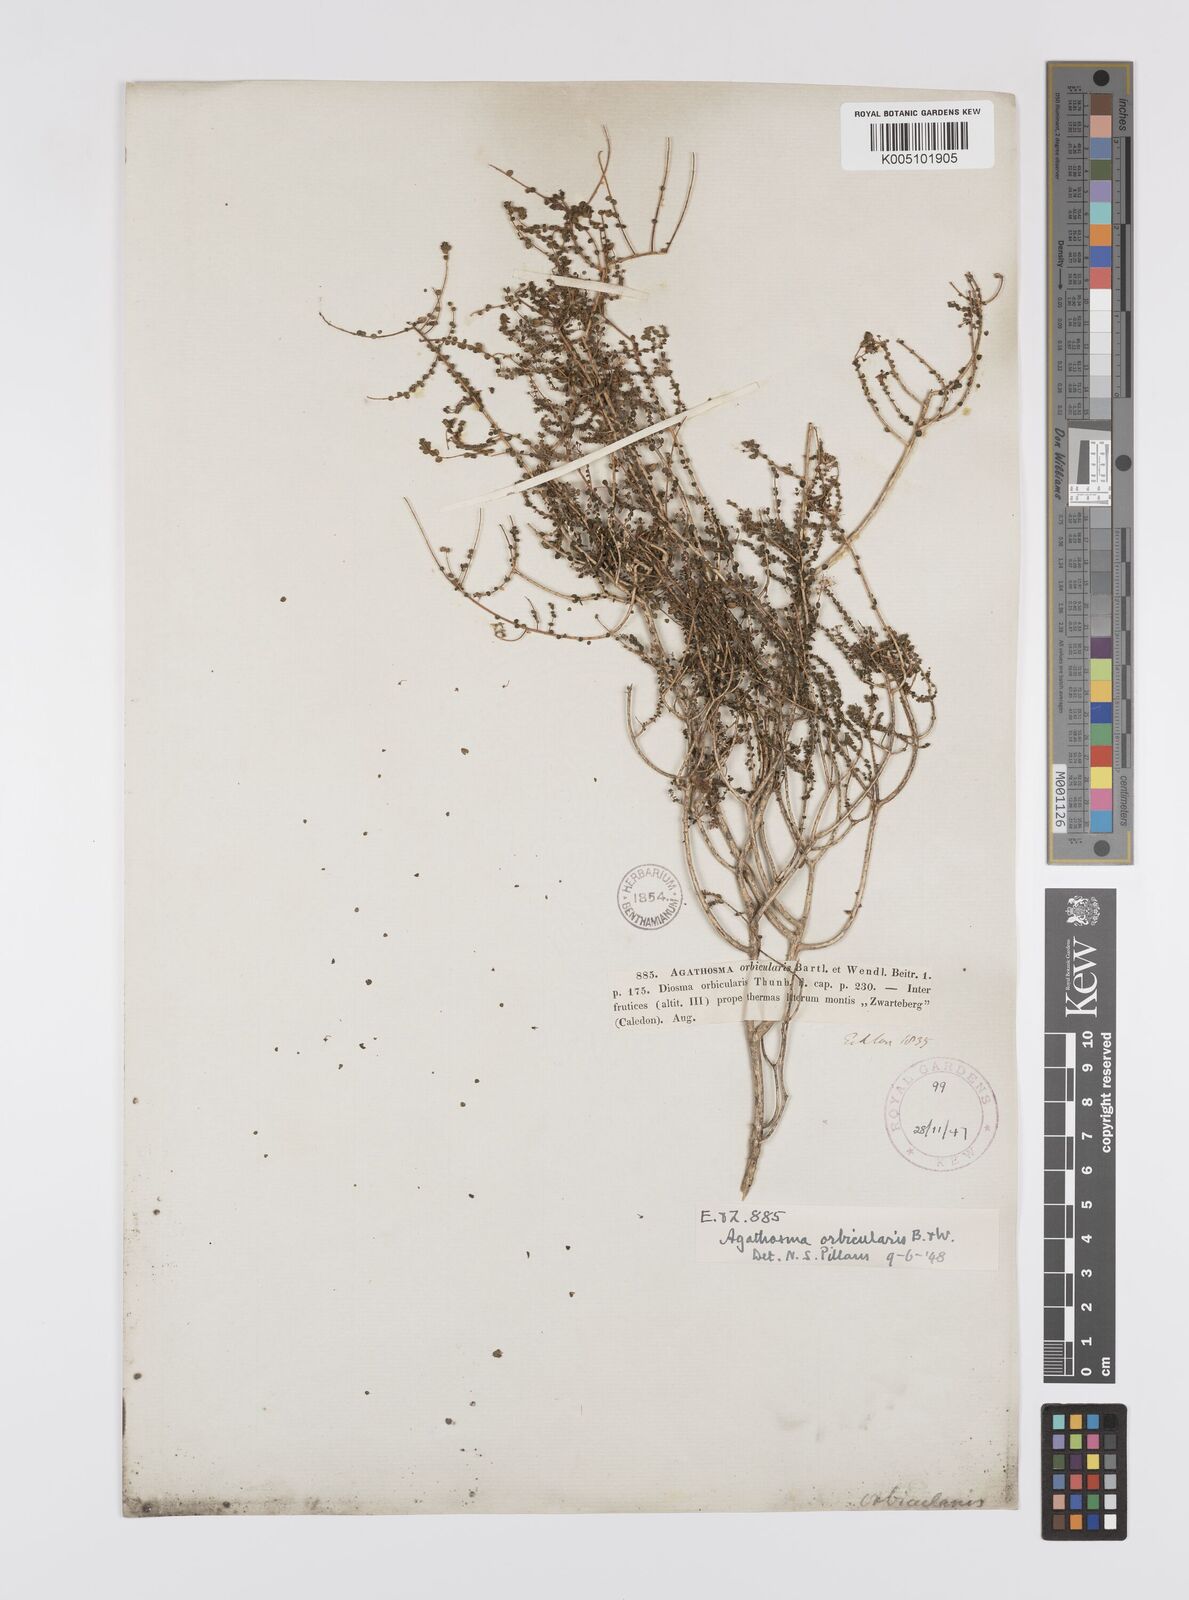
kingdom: Plantae
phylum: Tracheophyta
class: Magnoliopsida
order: Sapindales
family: Rutaceae
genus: Agathosma
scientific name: Agathosma orbicularis
